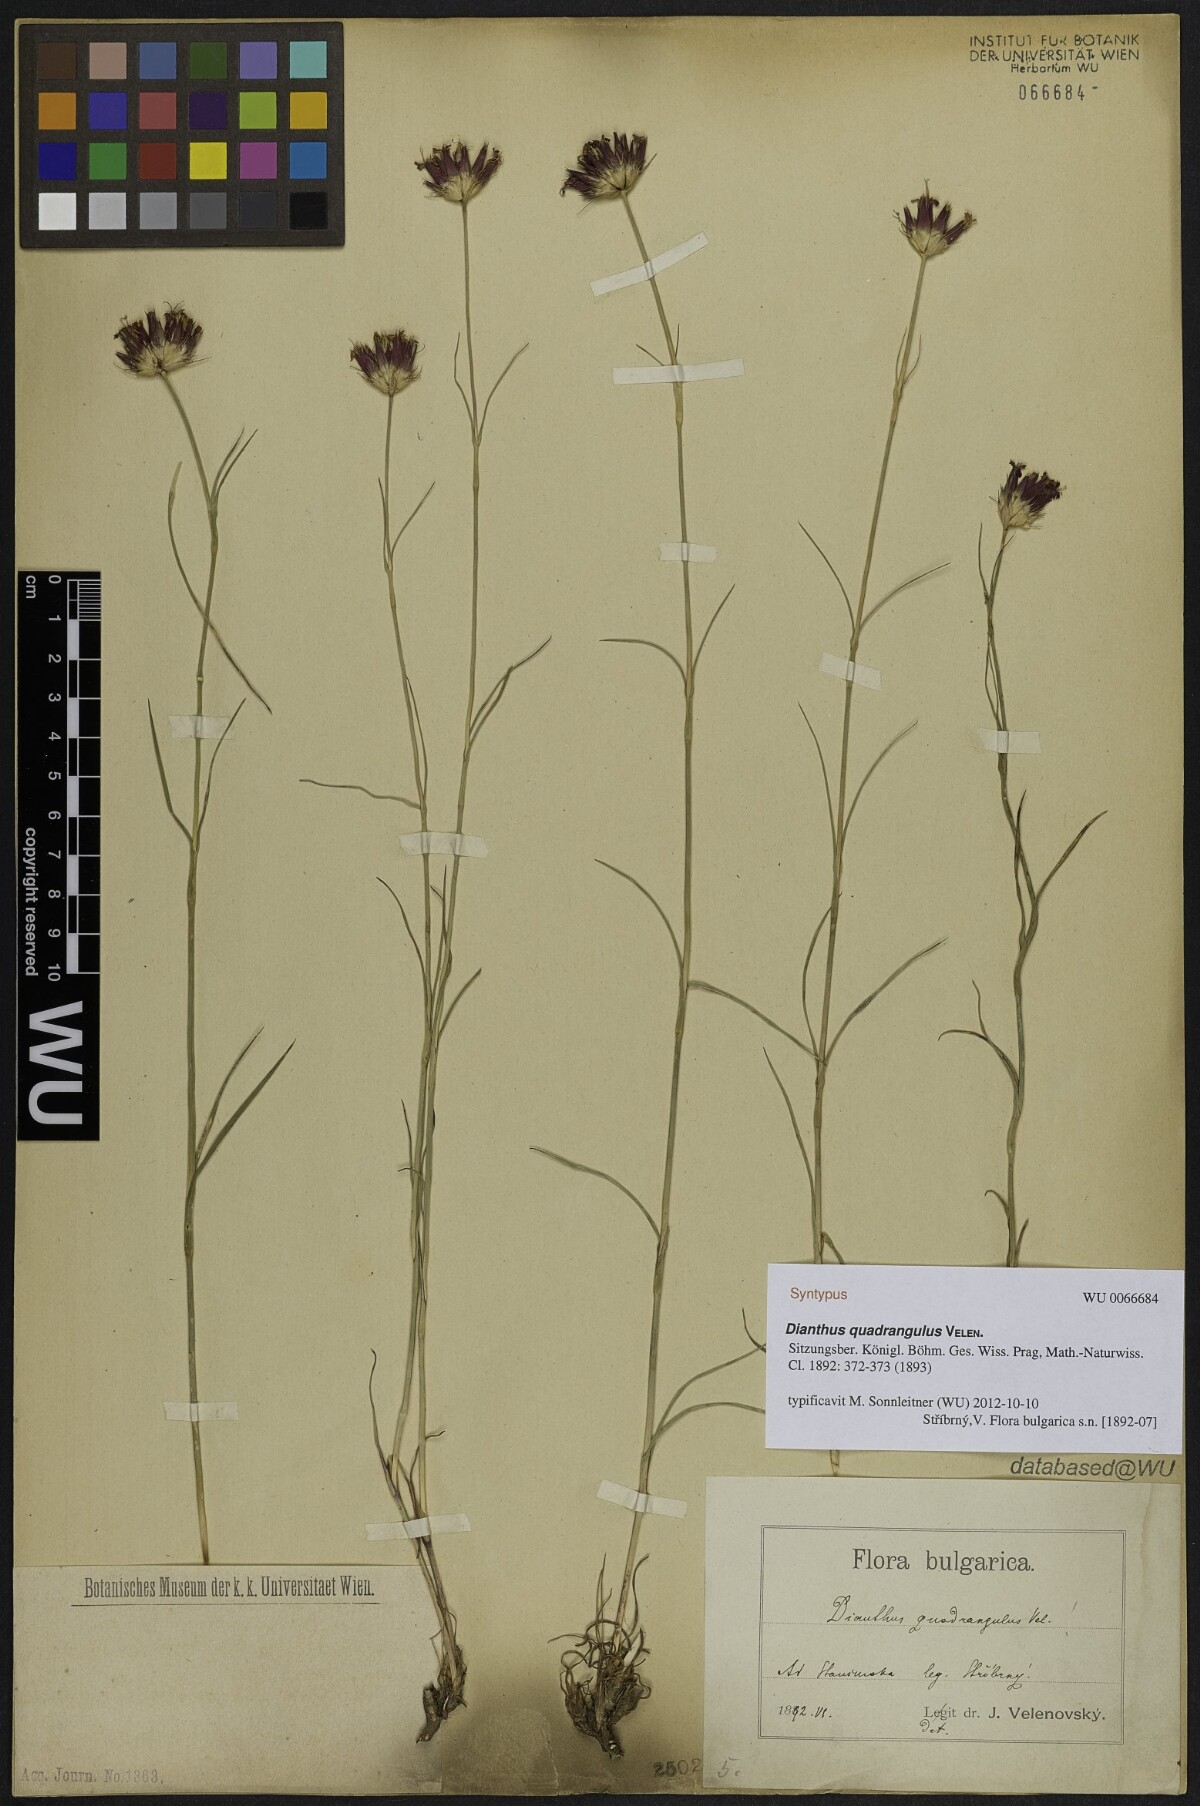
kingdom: Plantae
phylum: Tracheophyta
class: Magnoliopsida
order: Caryophyllales
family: Caryophyllaceae
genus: Dianthus
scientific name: Dianthus cruentus
